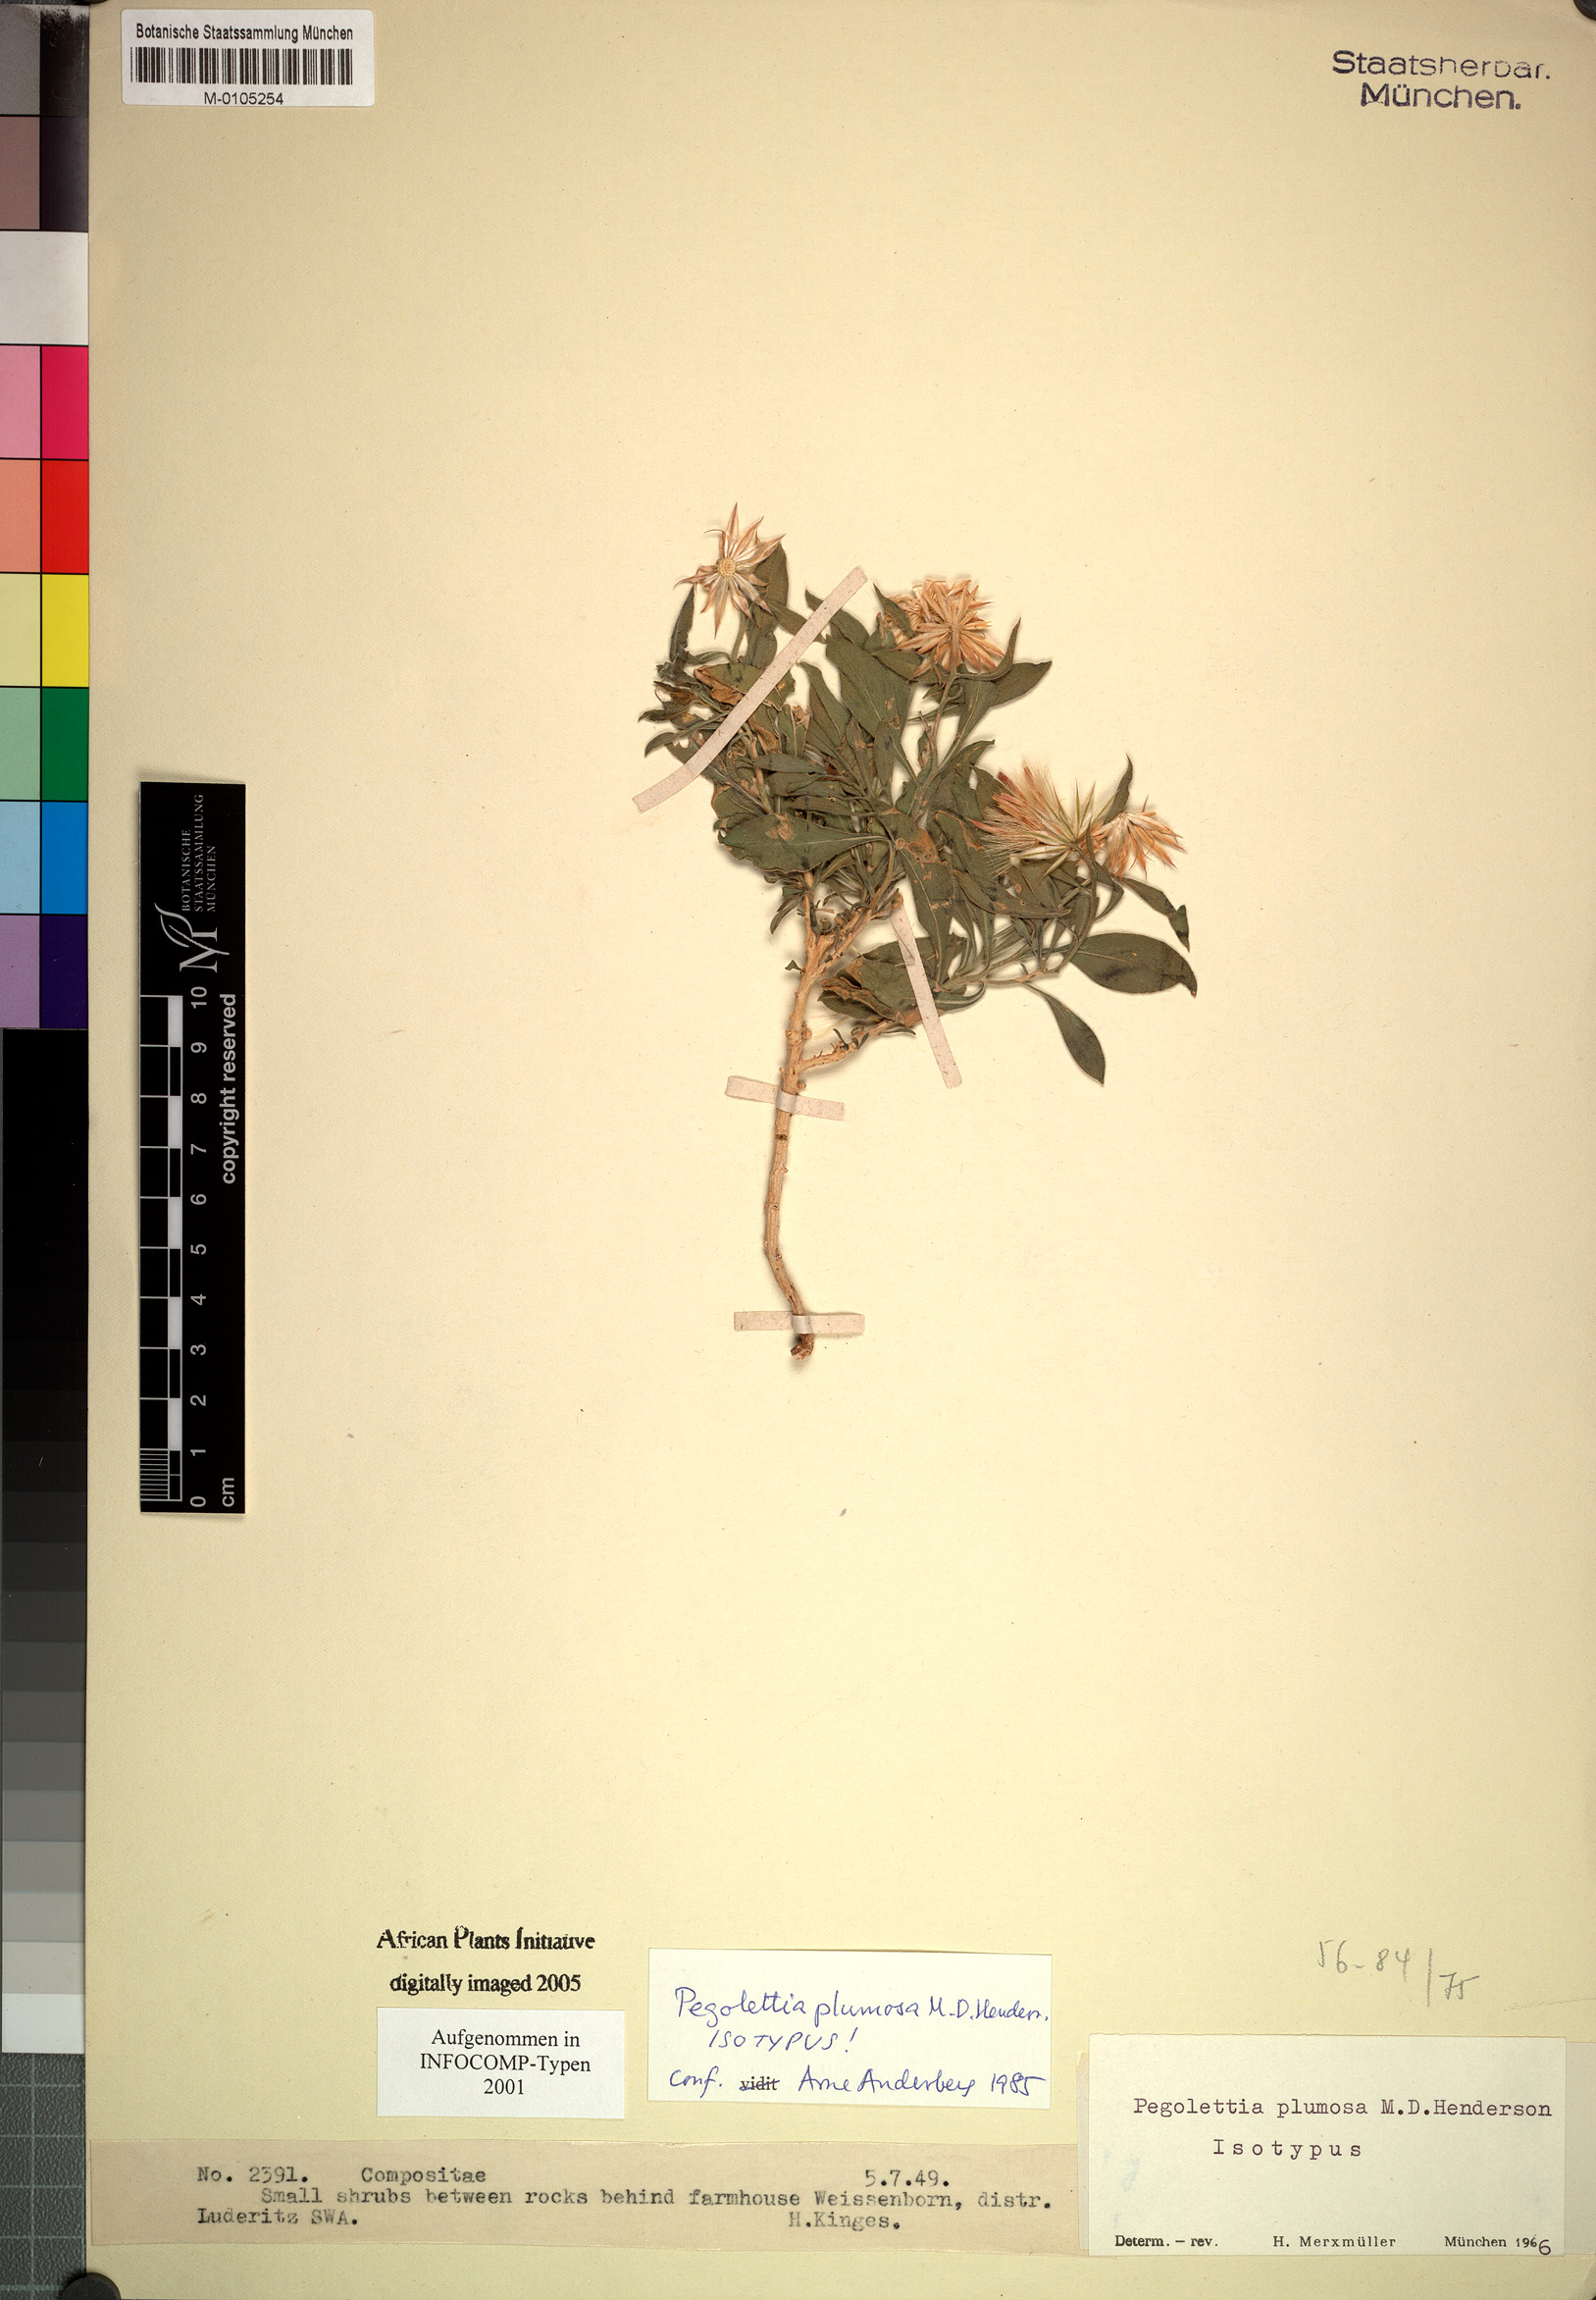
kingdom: Plantae
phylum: Tracheophyta
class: Magnoliopsida
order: Asterales
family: Asteraceae
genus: Pegolettia
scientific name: Pegolettia plumosa
